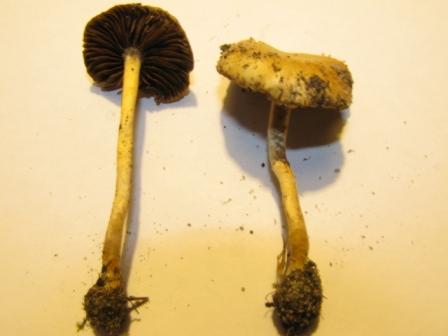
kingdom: Fungi
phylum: Basidiomycota
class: Agaricomycetes
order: Agaricales
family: Strophariaceae
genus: Agrocybe
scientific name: Agrocybe pediades
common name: almindelig agerhat
